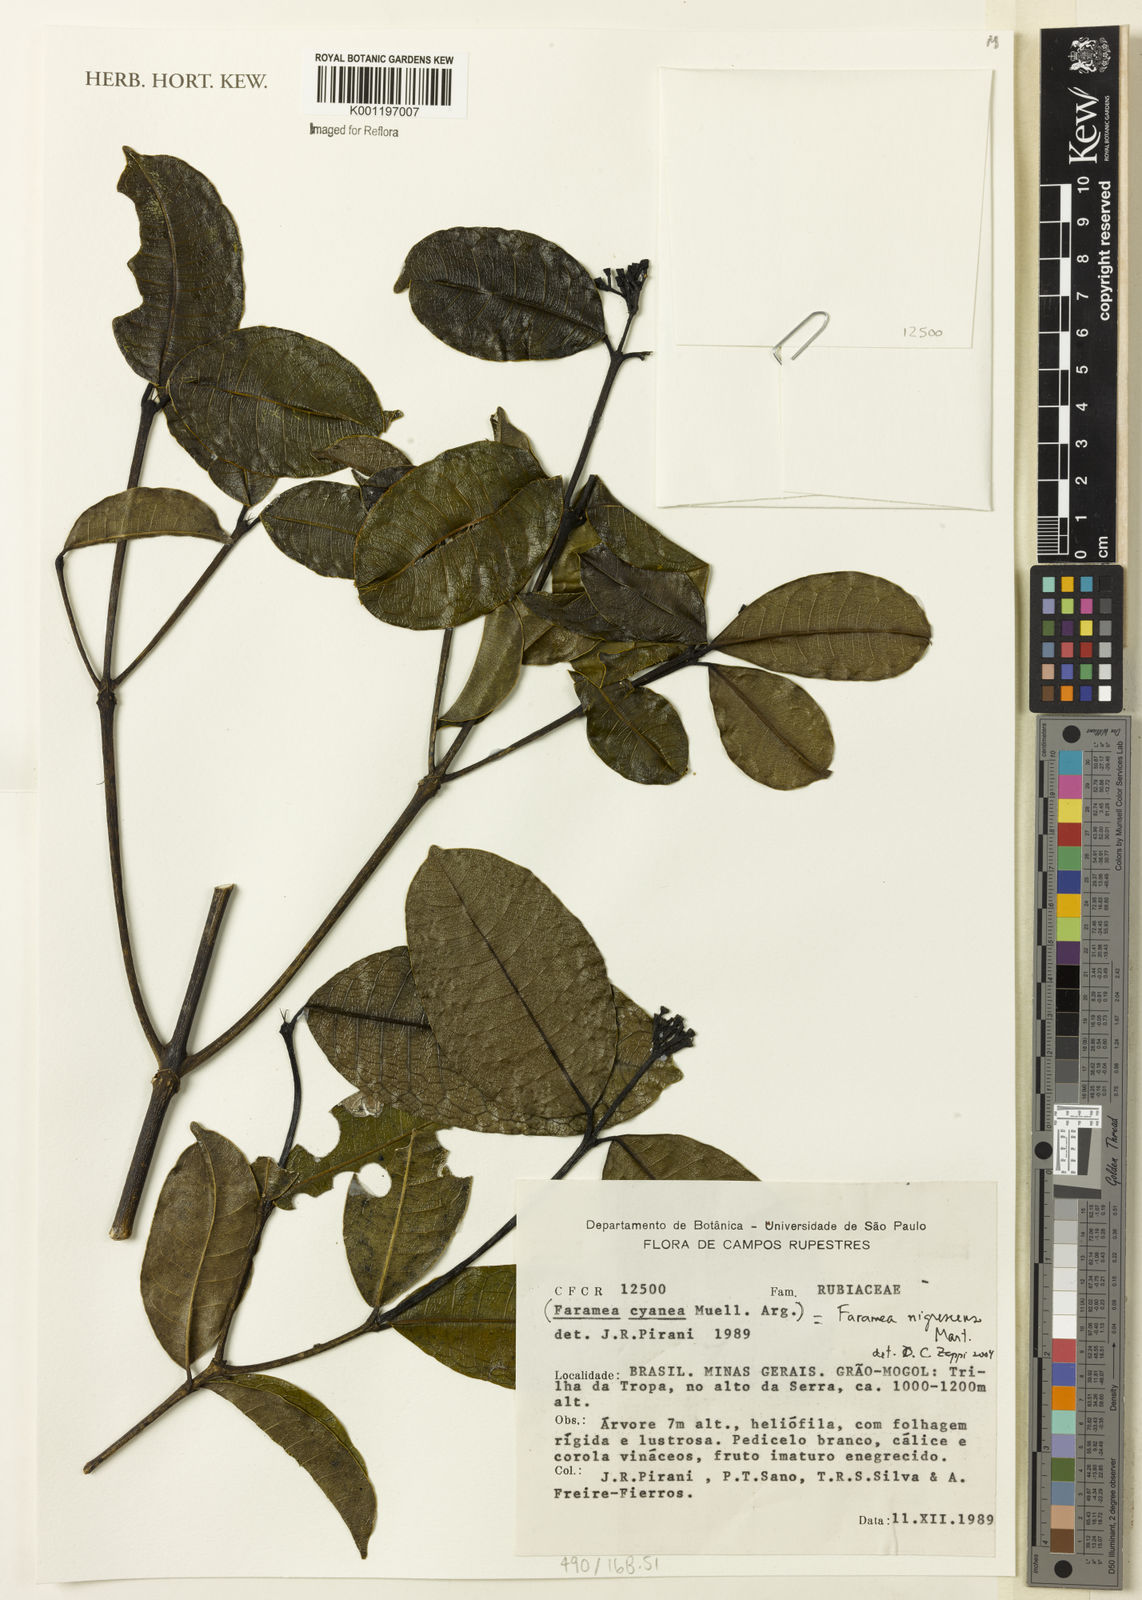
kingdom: Plantae
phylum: Tracheophyta
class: Magnoliopsida
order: Gentianales
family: Rubiaceae
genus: Faramea
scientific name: Faramea montevidensis
